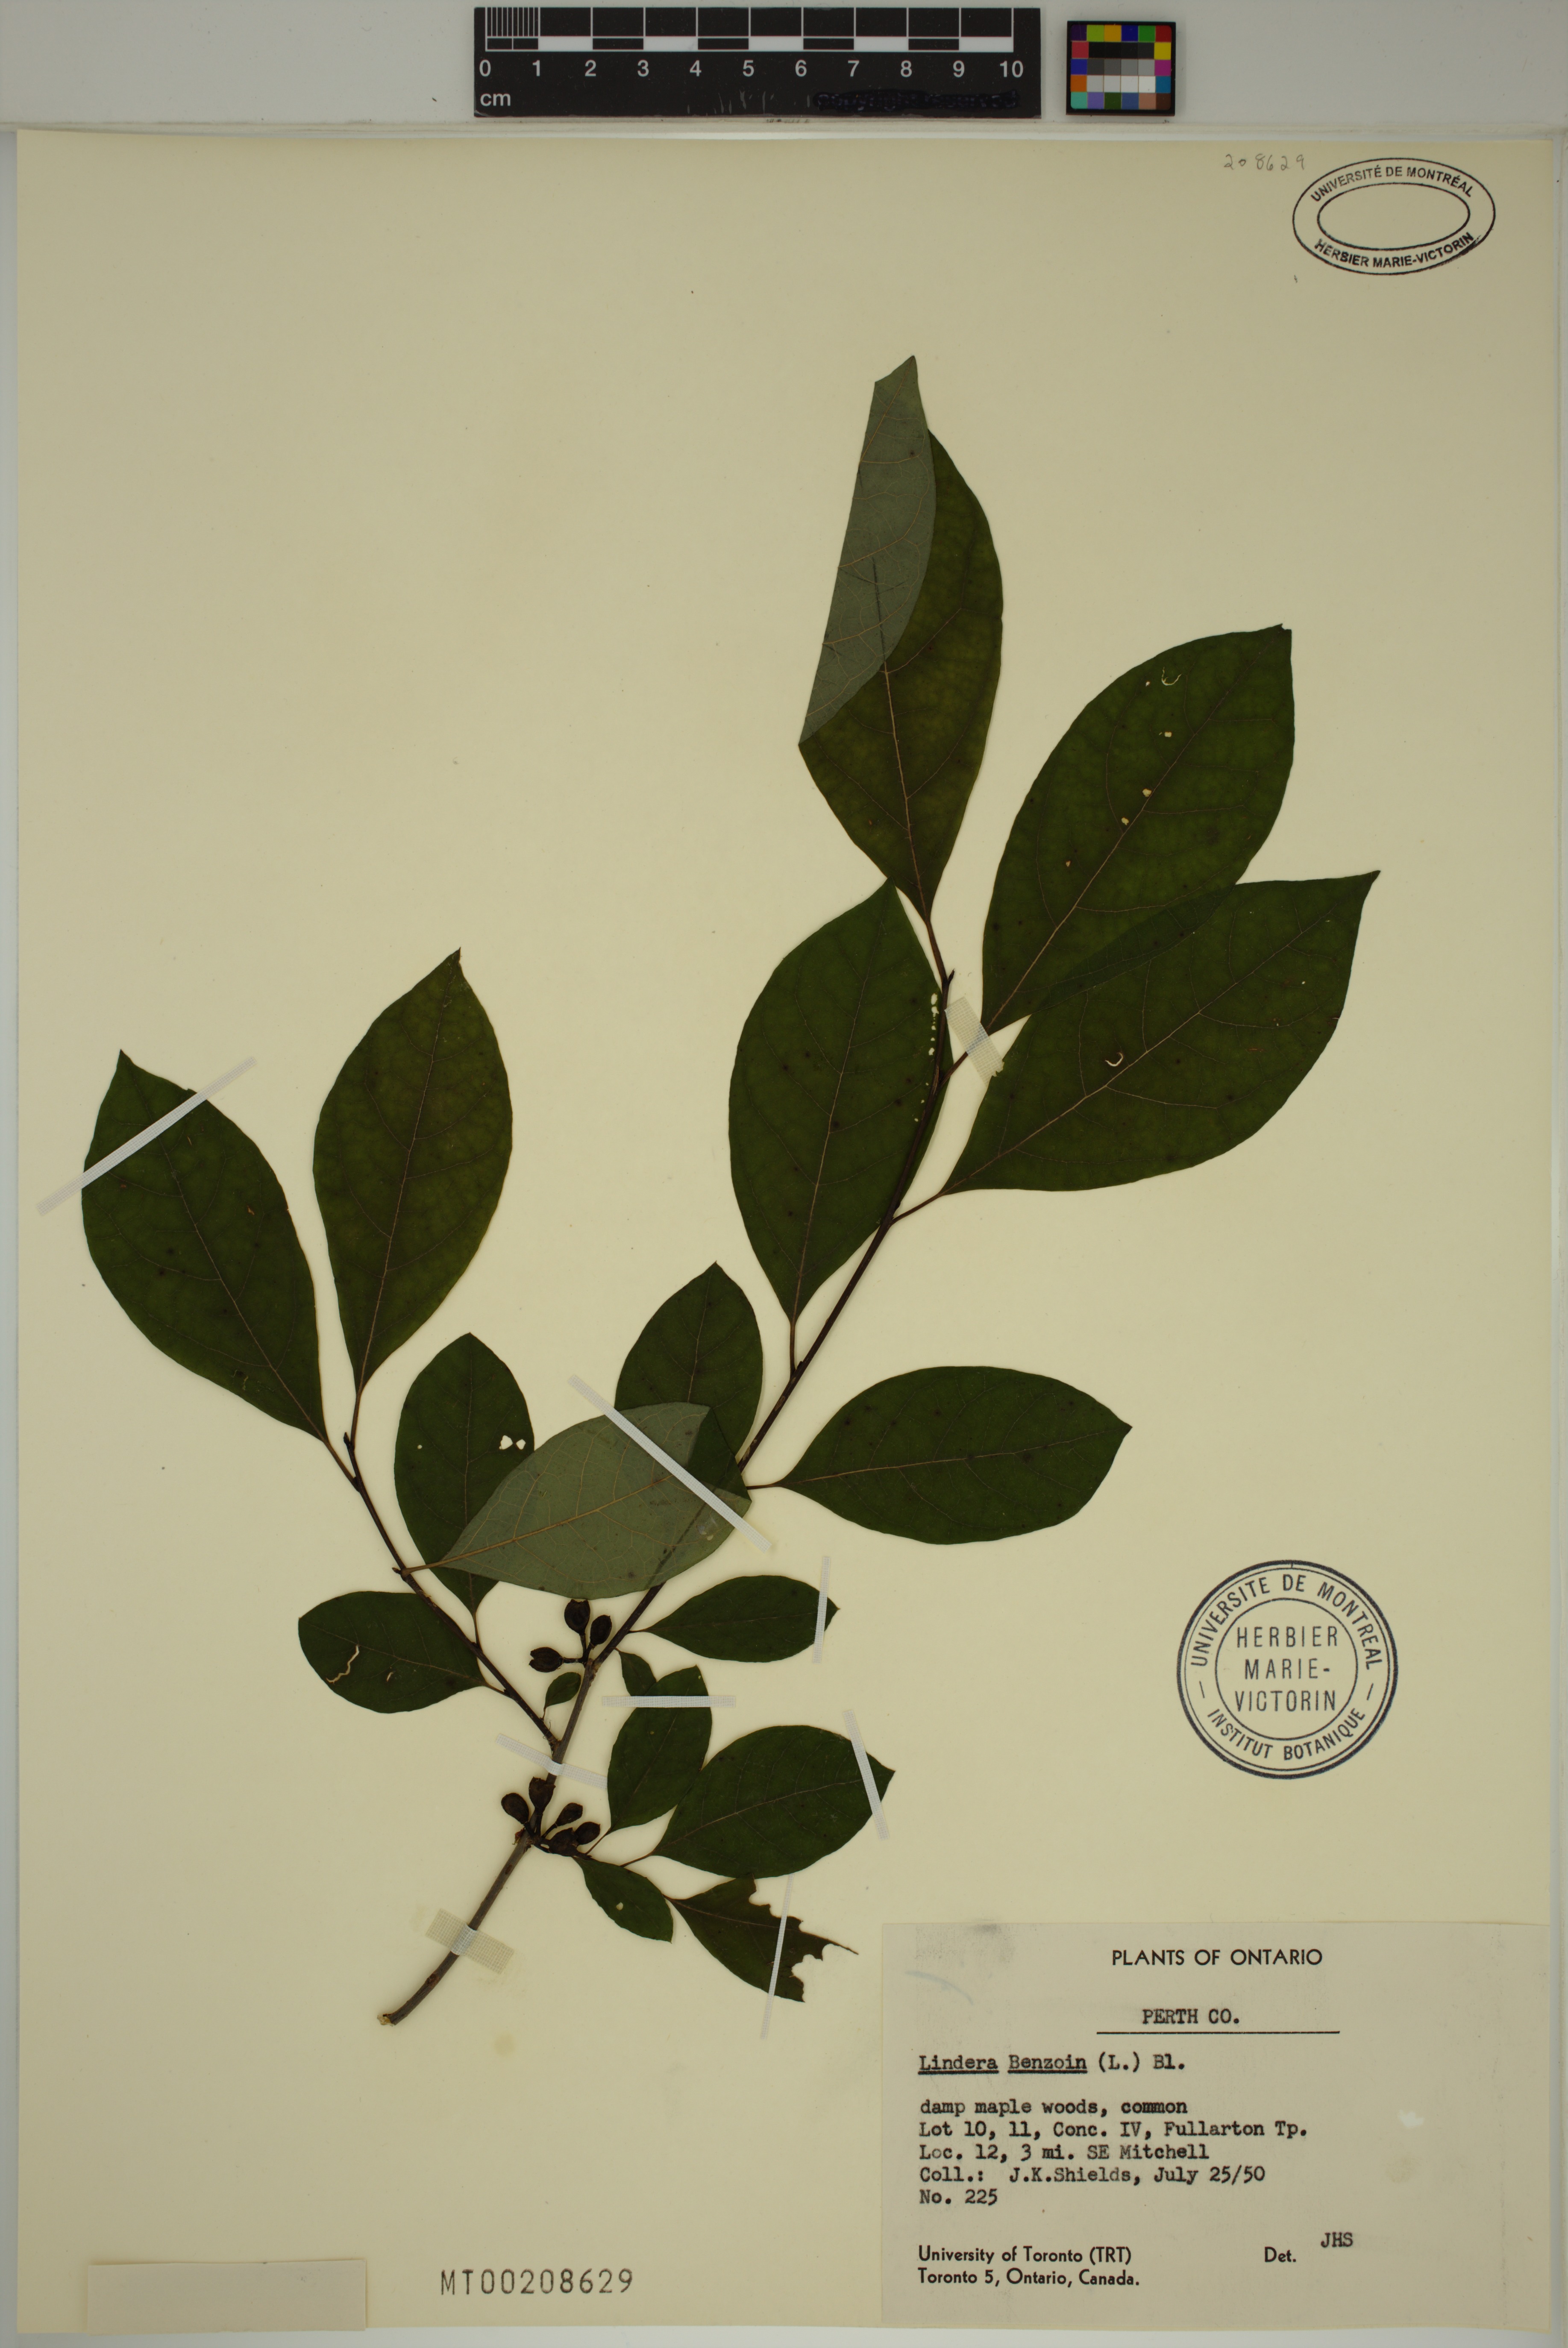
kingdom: Plantae
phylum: Tracheophyta
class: Magnoliopsida
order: Laurales
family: Lauraceae
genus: Lindera
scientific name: Lindera benzoin
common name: Spicebush
